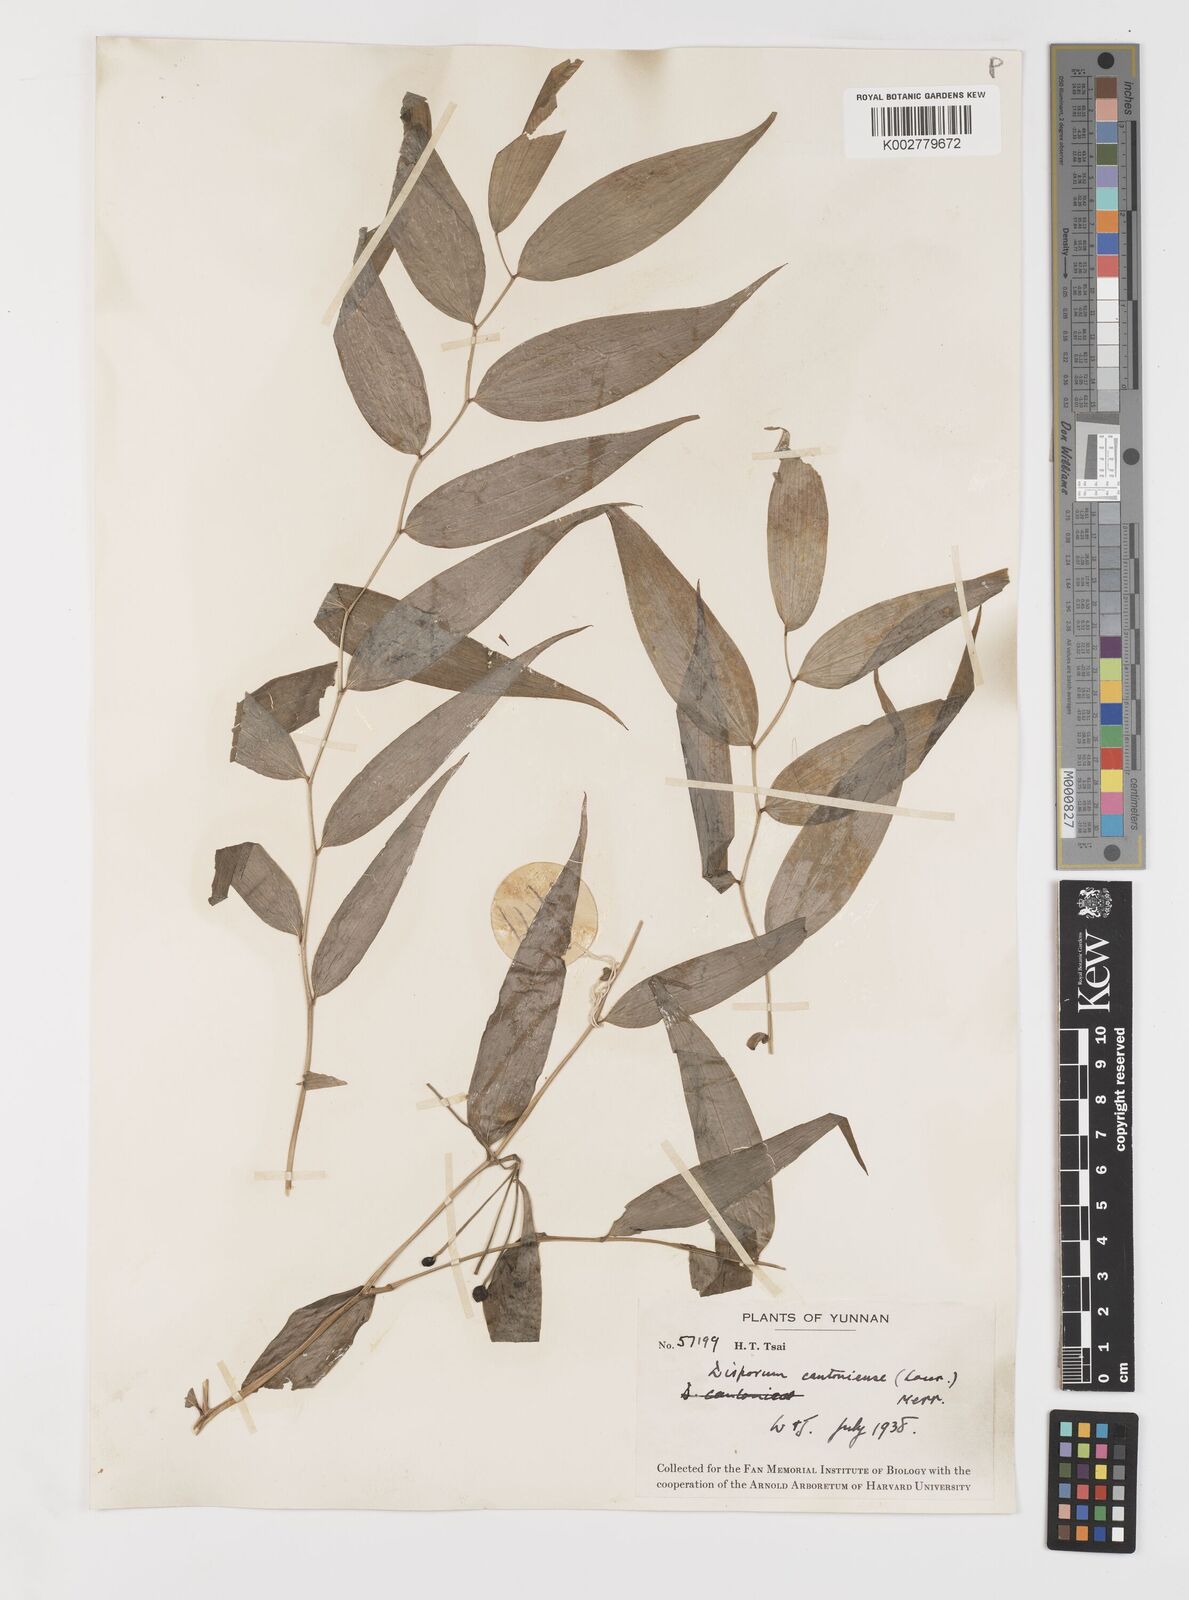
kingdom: Plantae
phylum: Tracheophyta
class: Liliopsida
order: Liliales
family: Colchicaceae
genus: Disporum
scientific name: Disporum cantoniense
